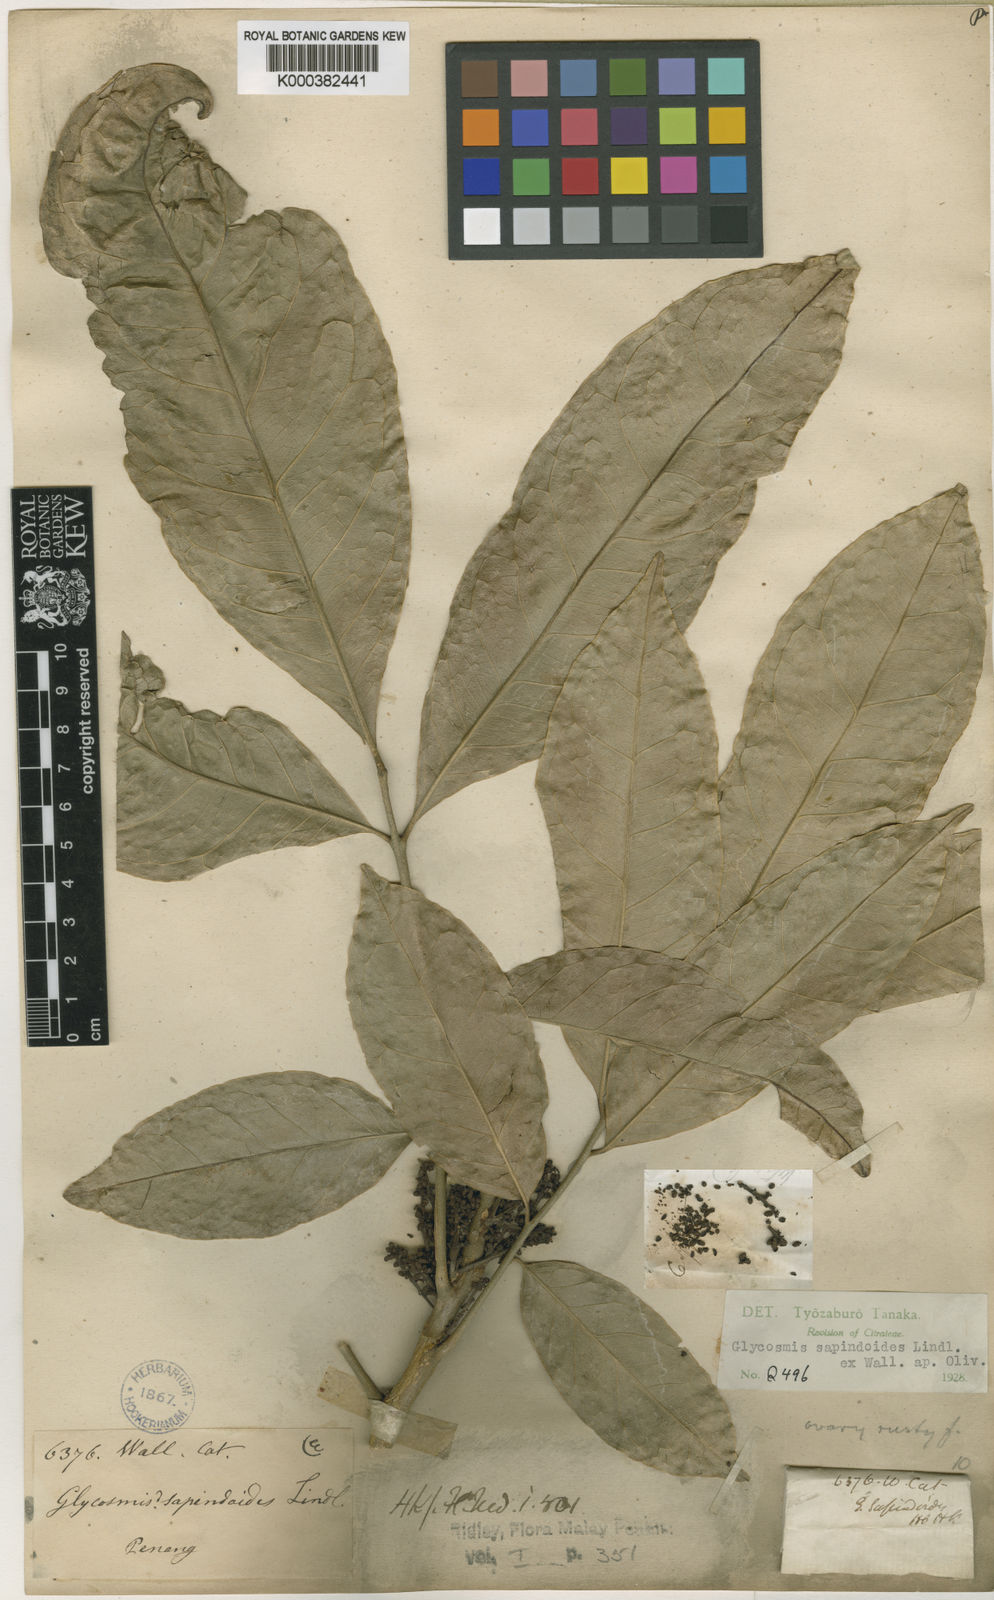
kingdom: Plantae
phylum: Tracheophyta
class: Magnoliopsida
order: Sapindales
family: Rutaceae
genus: Glycosmis
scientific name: Glycosmis
